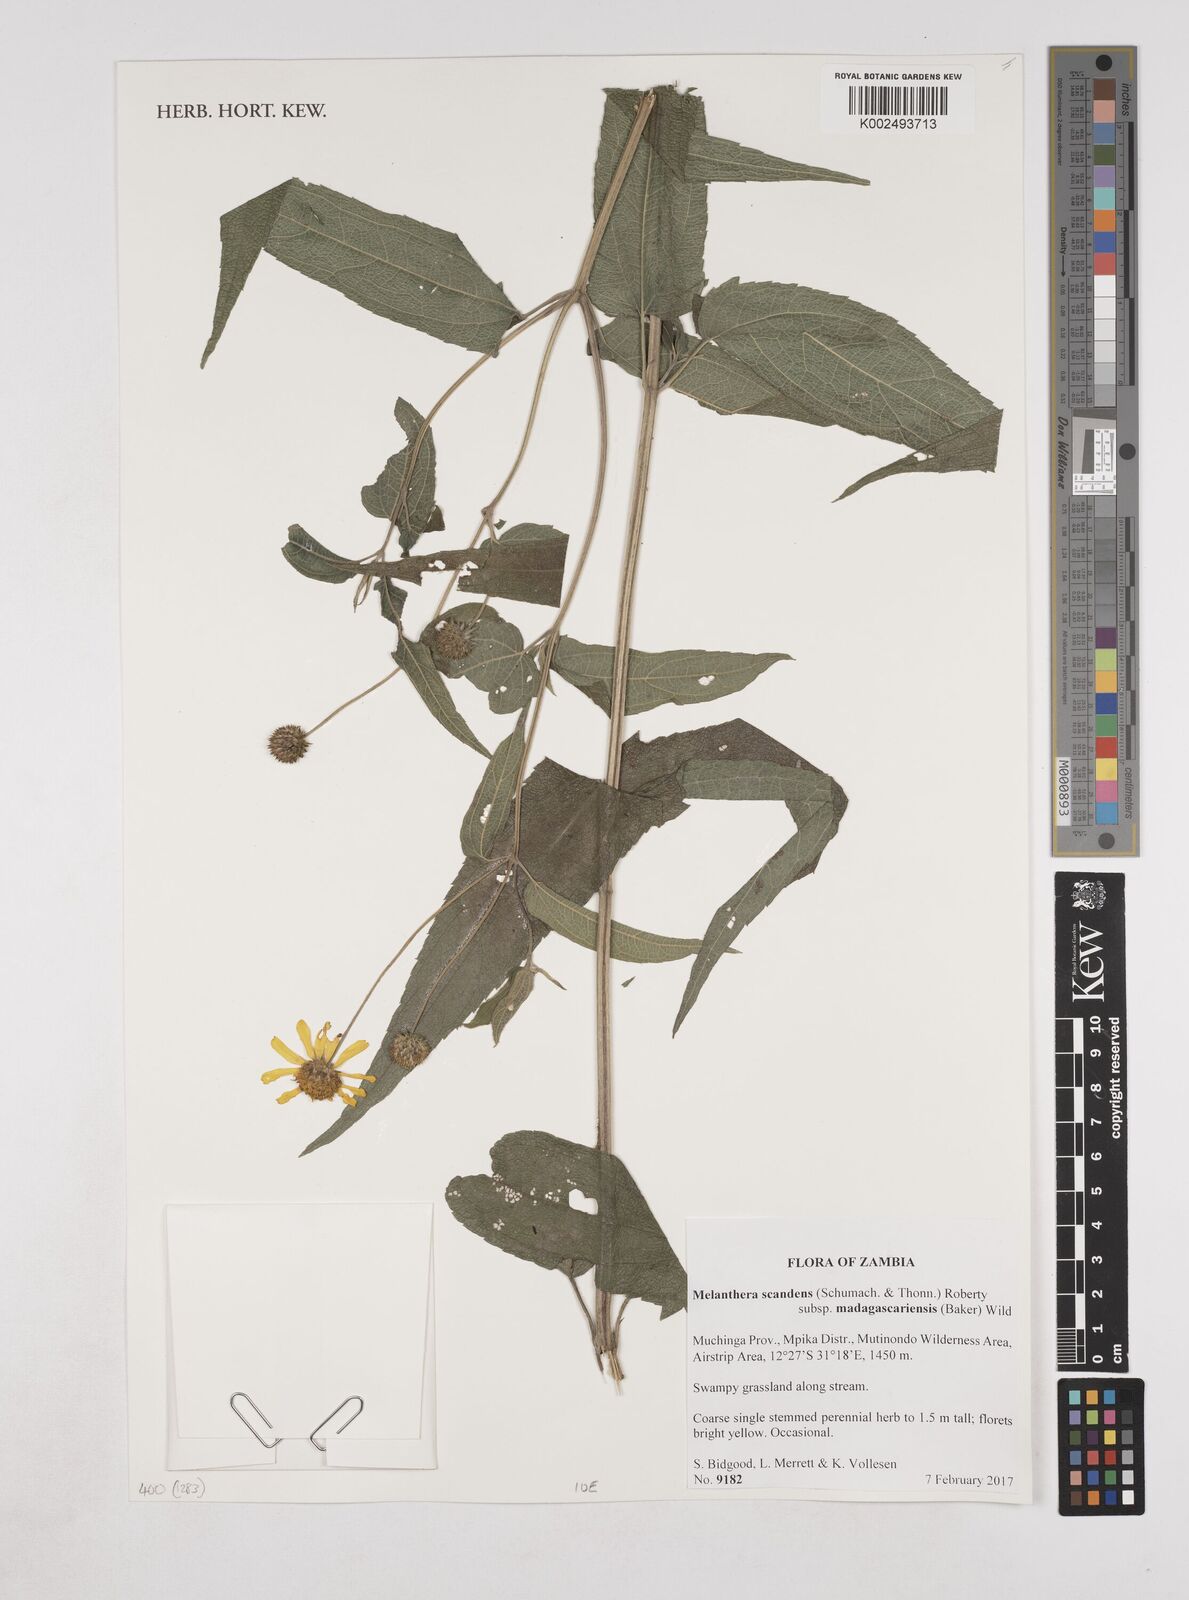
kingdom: Plantae
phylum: Tracheophyta
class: Magnoliopsida
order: Asterales
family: Asteraceae
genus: Lipotriche
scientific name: Lipotriche scandens
